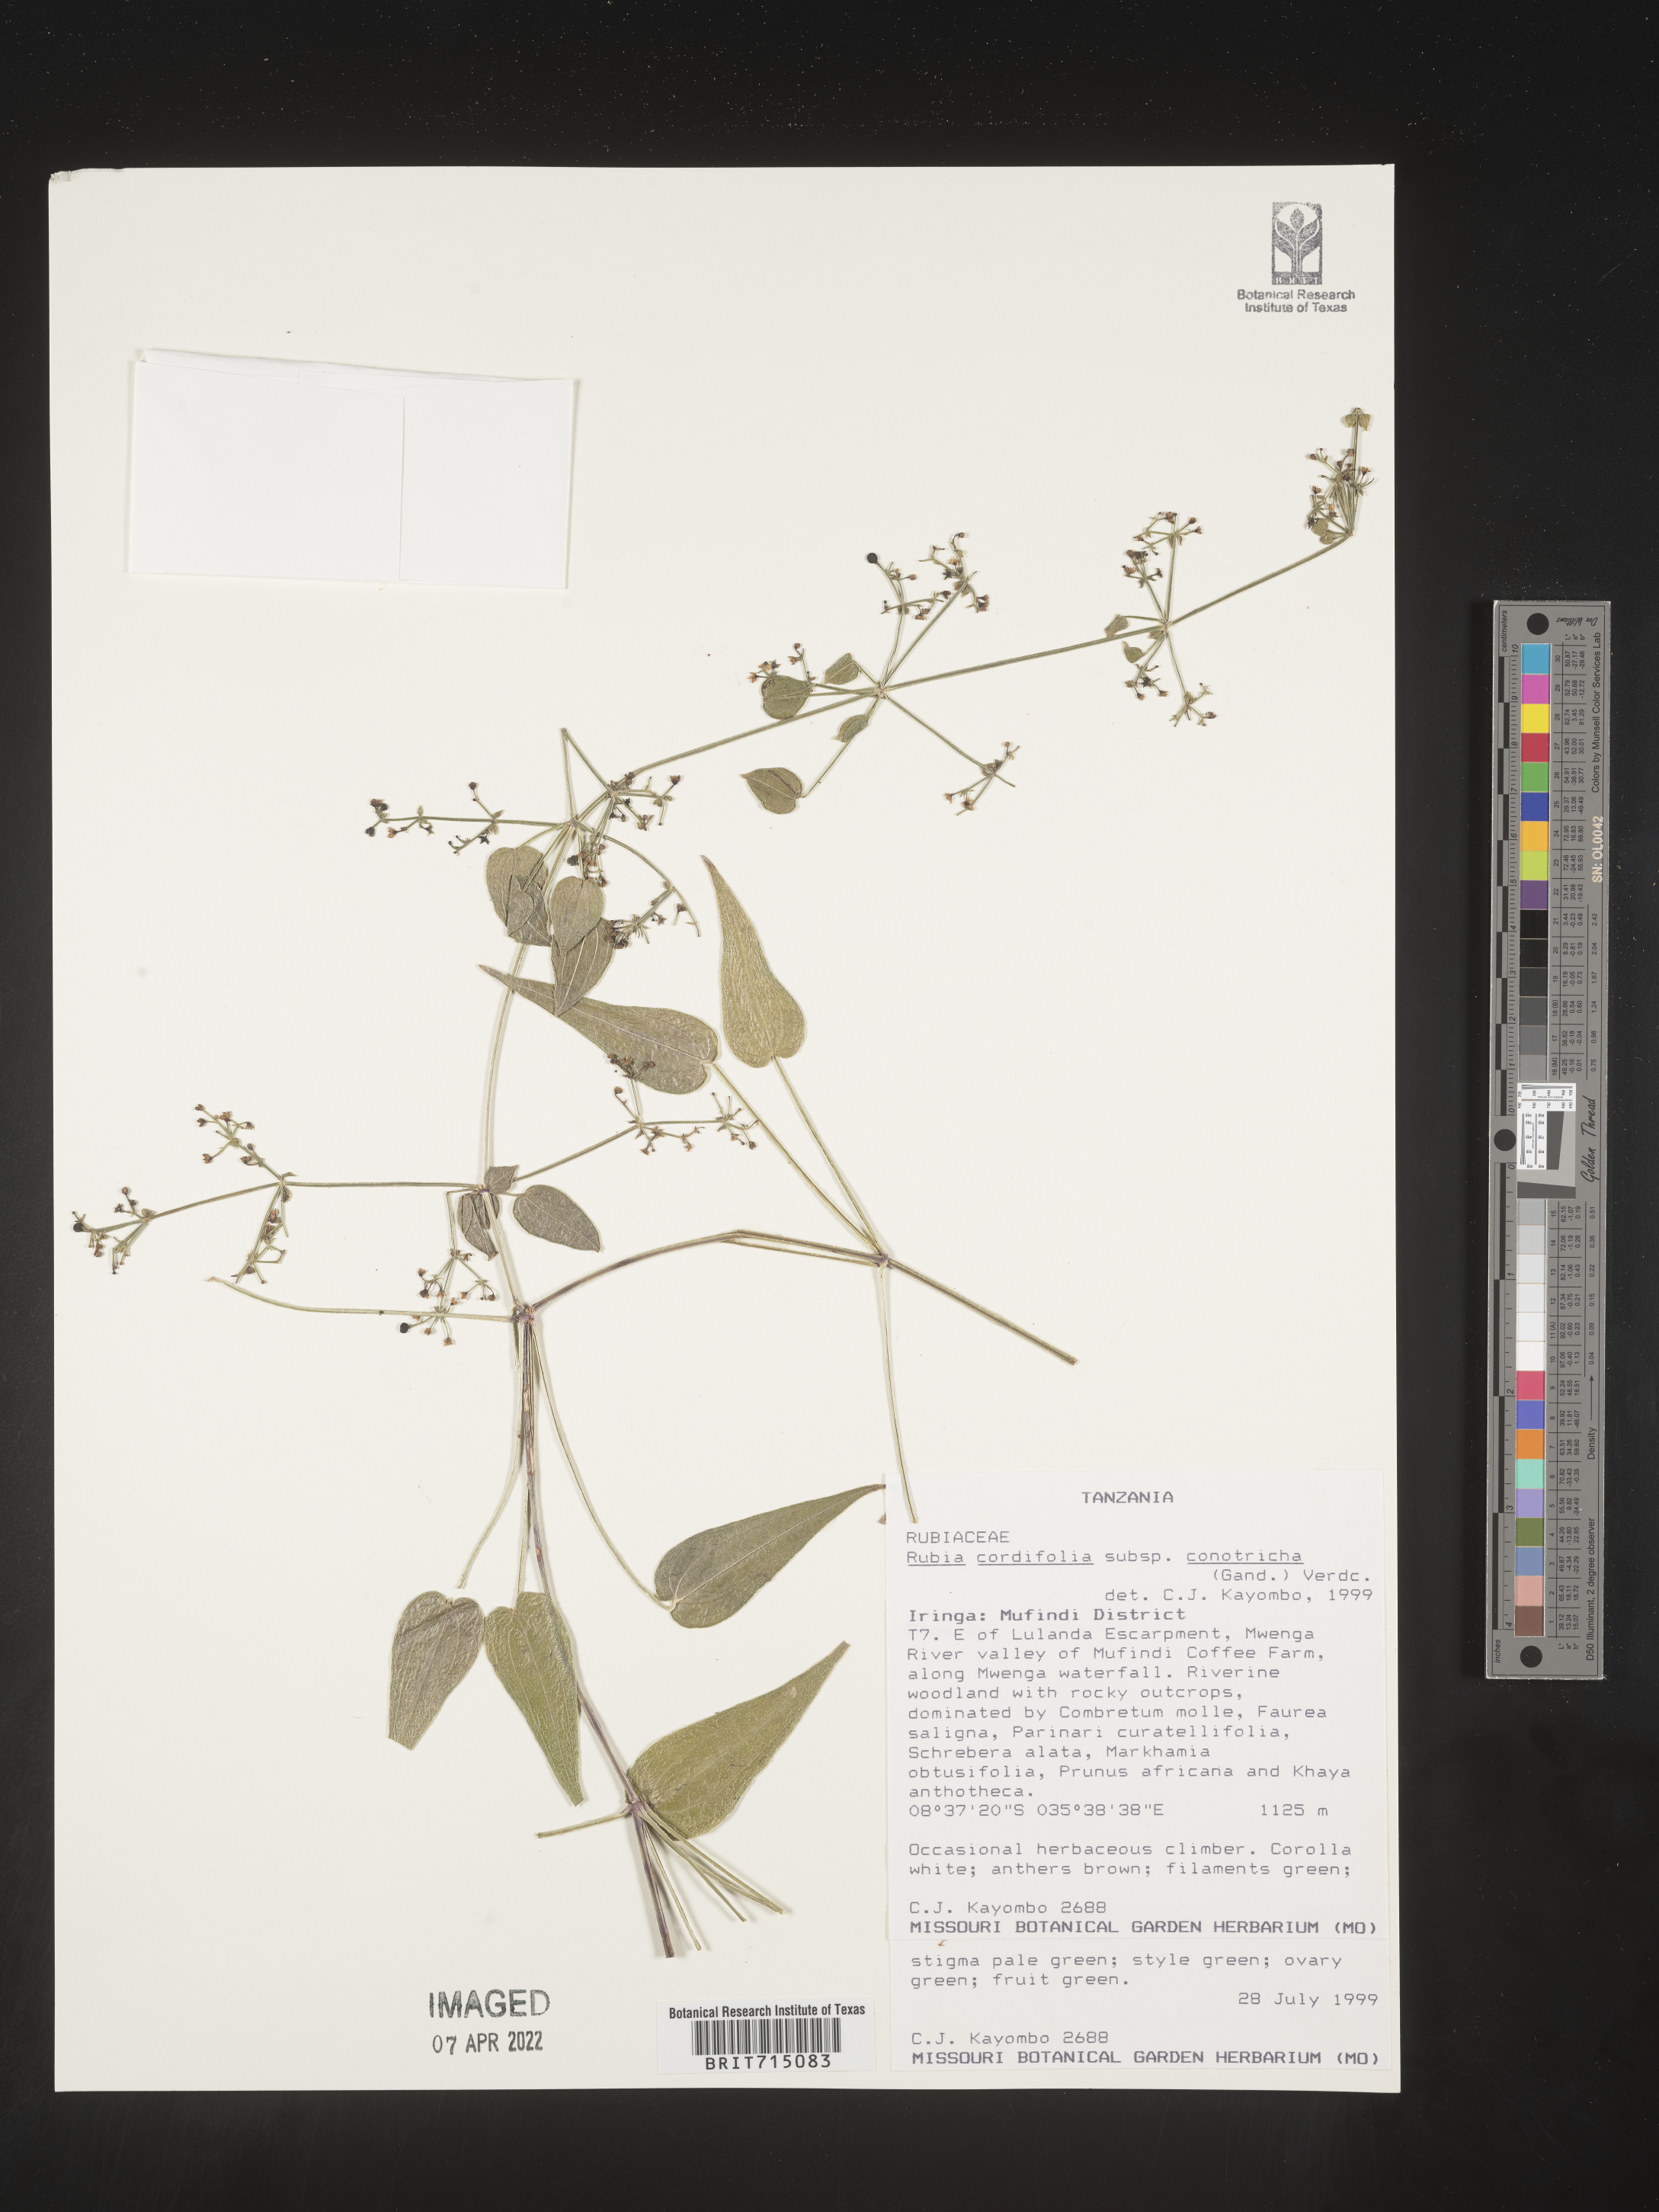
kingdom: Plantae
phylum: Tracheophyta
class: Magnoliopsida
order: Gentianales
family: Rubiaceae
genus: Rubia
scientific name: Rubia
